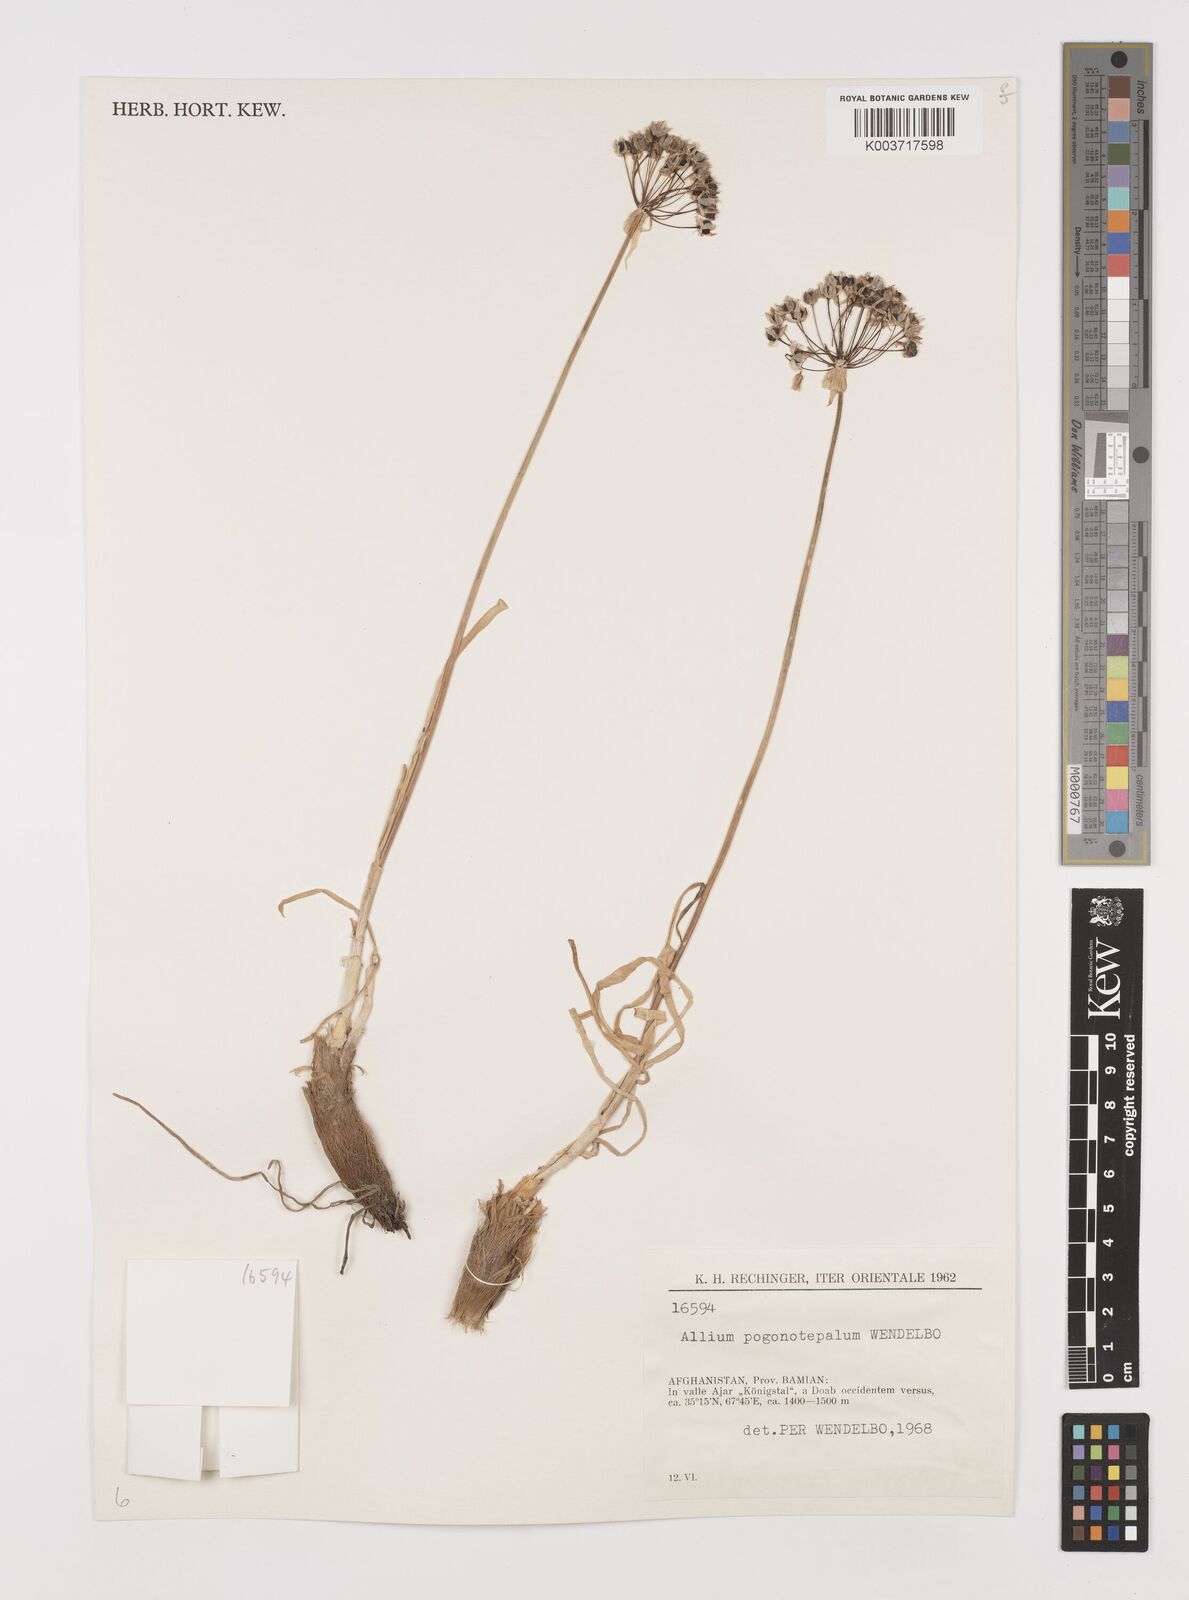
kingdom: Plantae
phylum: Tracheophyta
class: Liliopsida
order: Asparagales
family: Amaryllidaceae
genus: Allium
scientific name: Allium pogonotepalum
